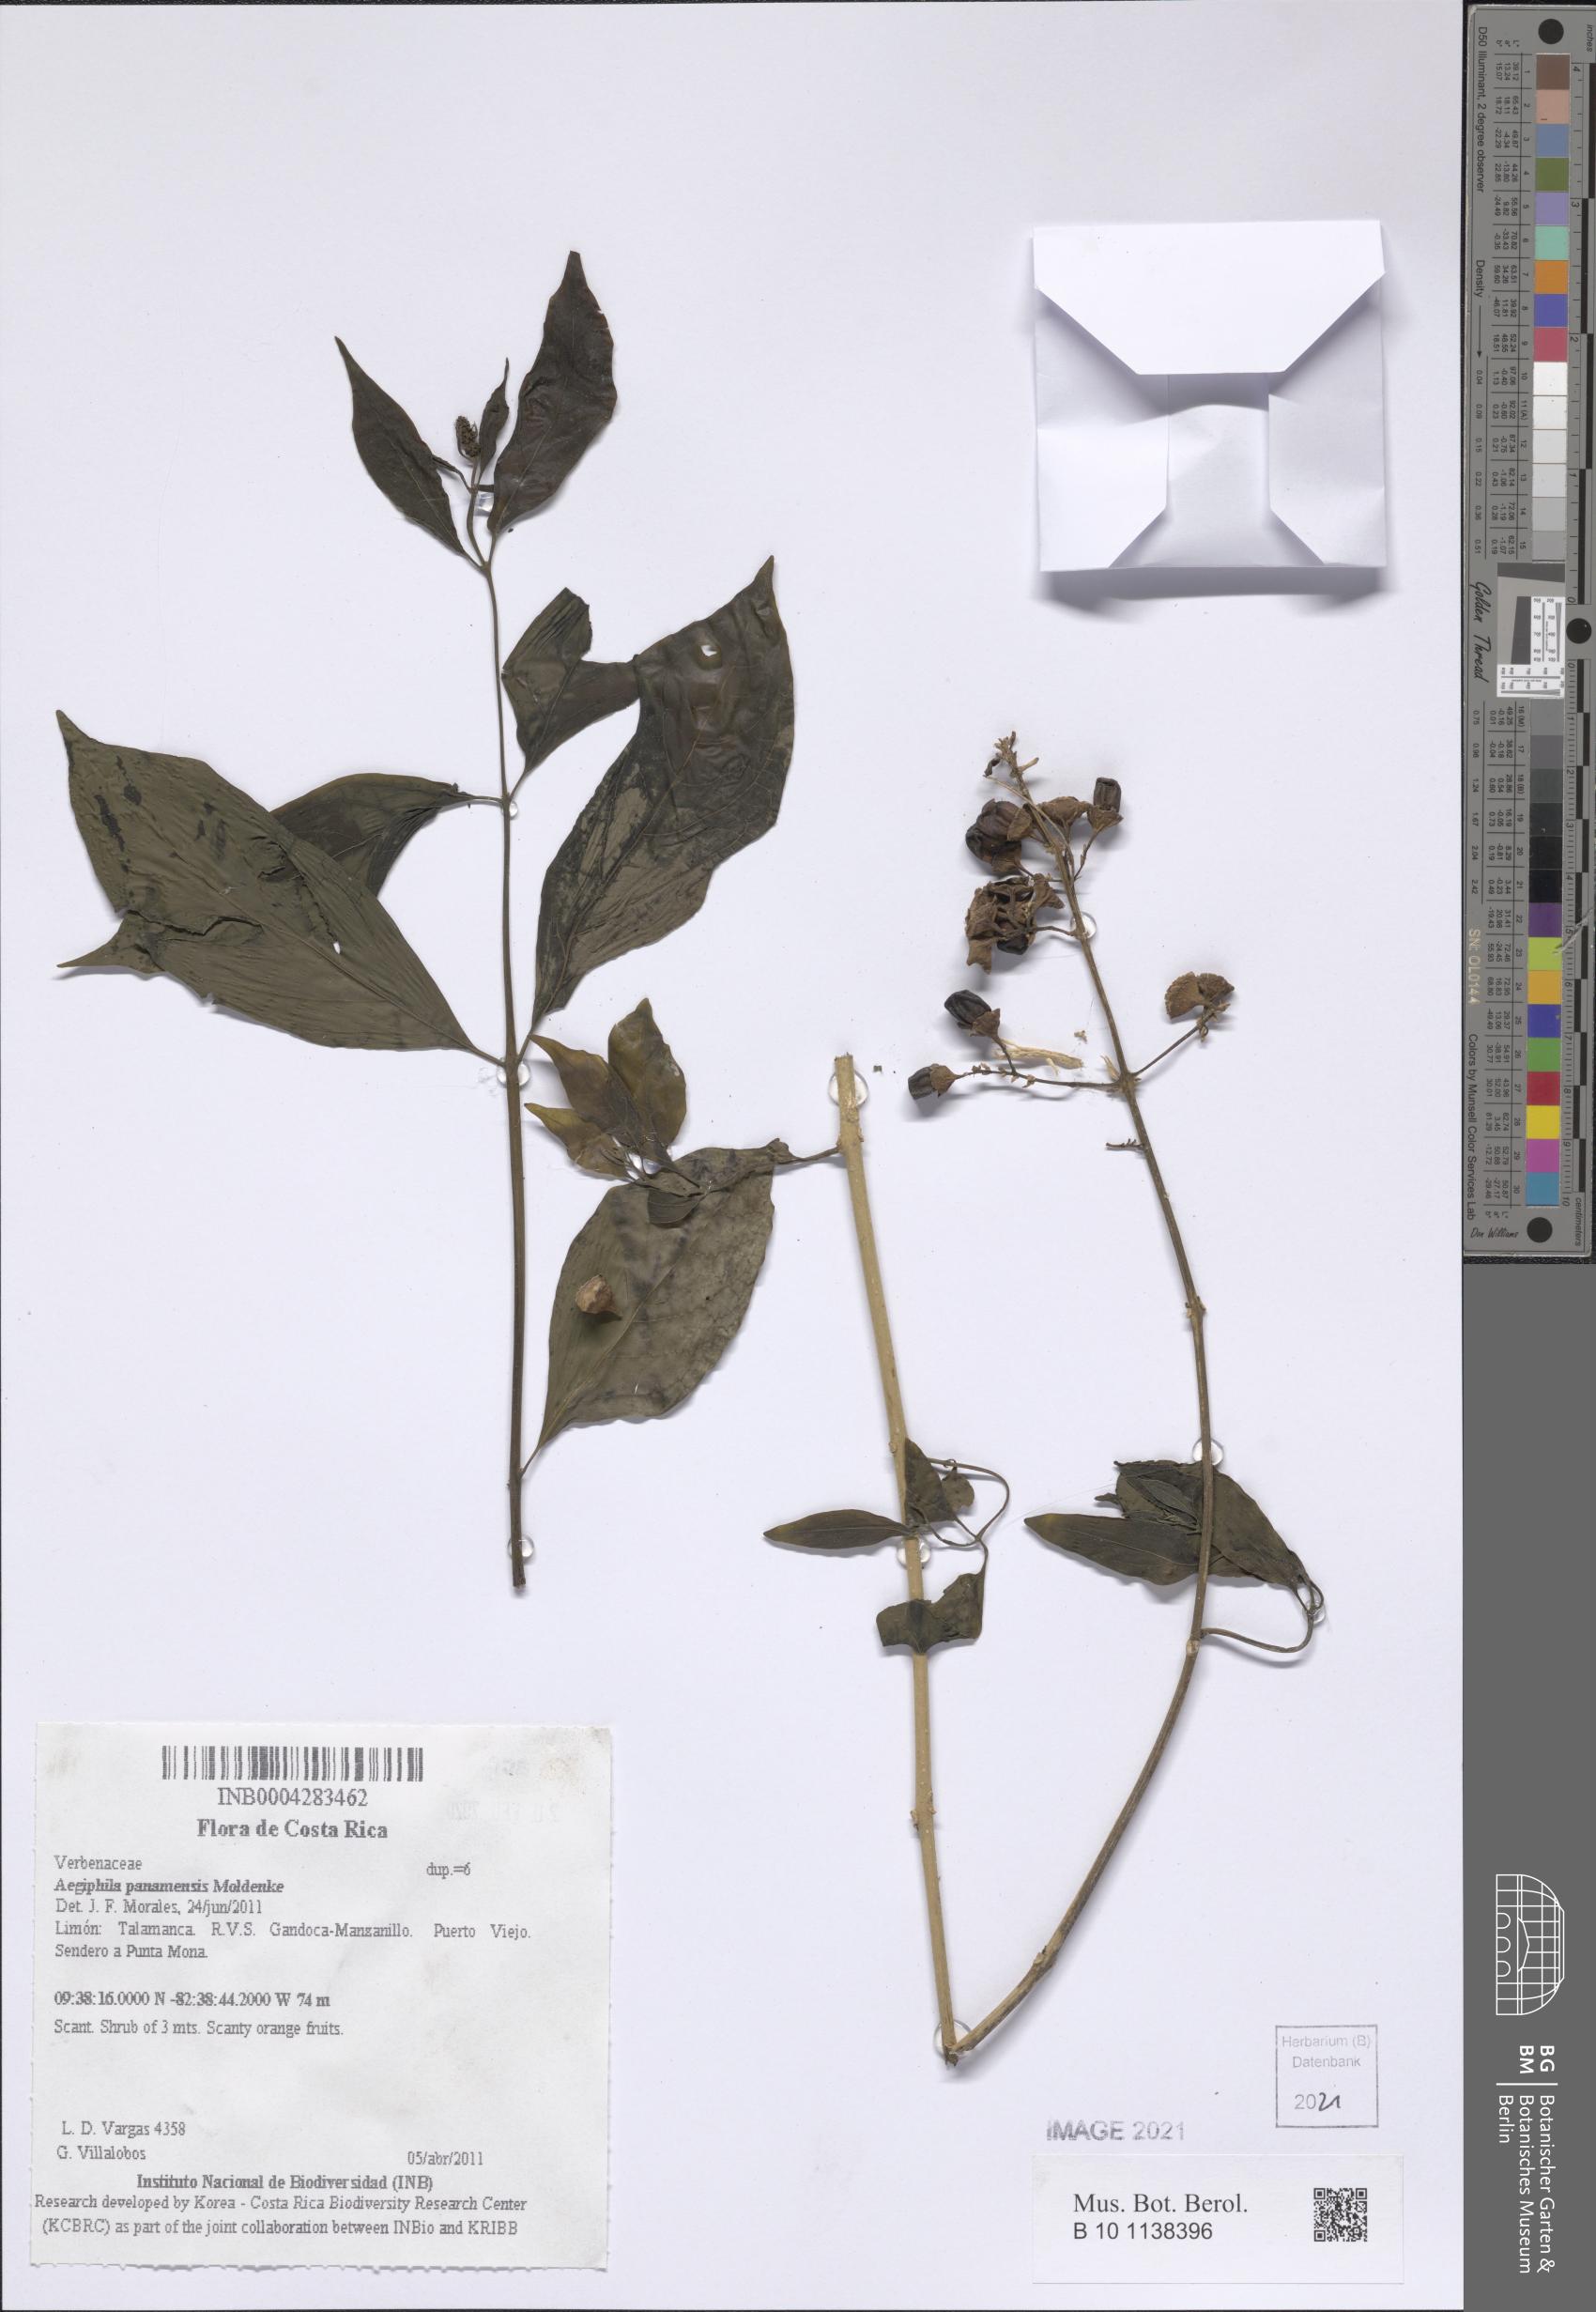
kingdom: Plantae
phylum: Tracheophyta
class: Magnoliopsida
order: Lamiales
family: Lamiaceae
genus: Aegiphila
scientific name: Aegiphila panamensis
